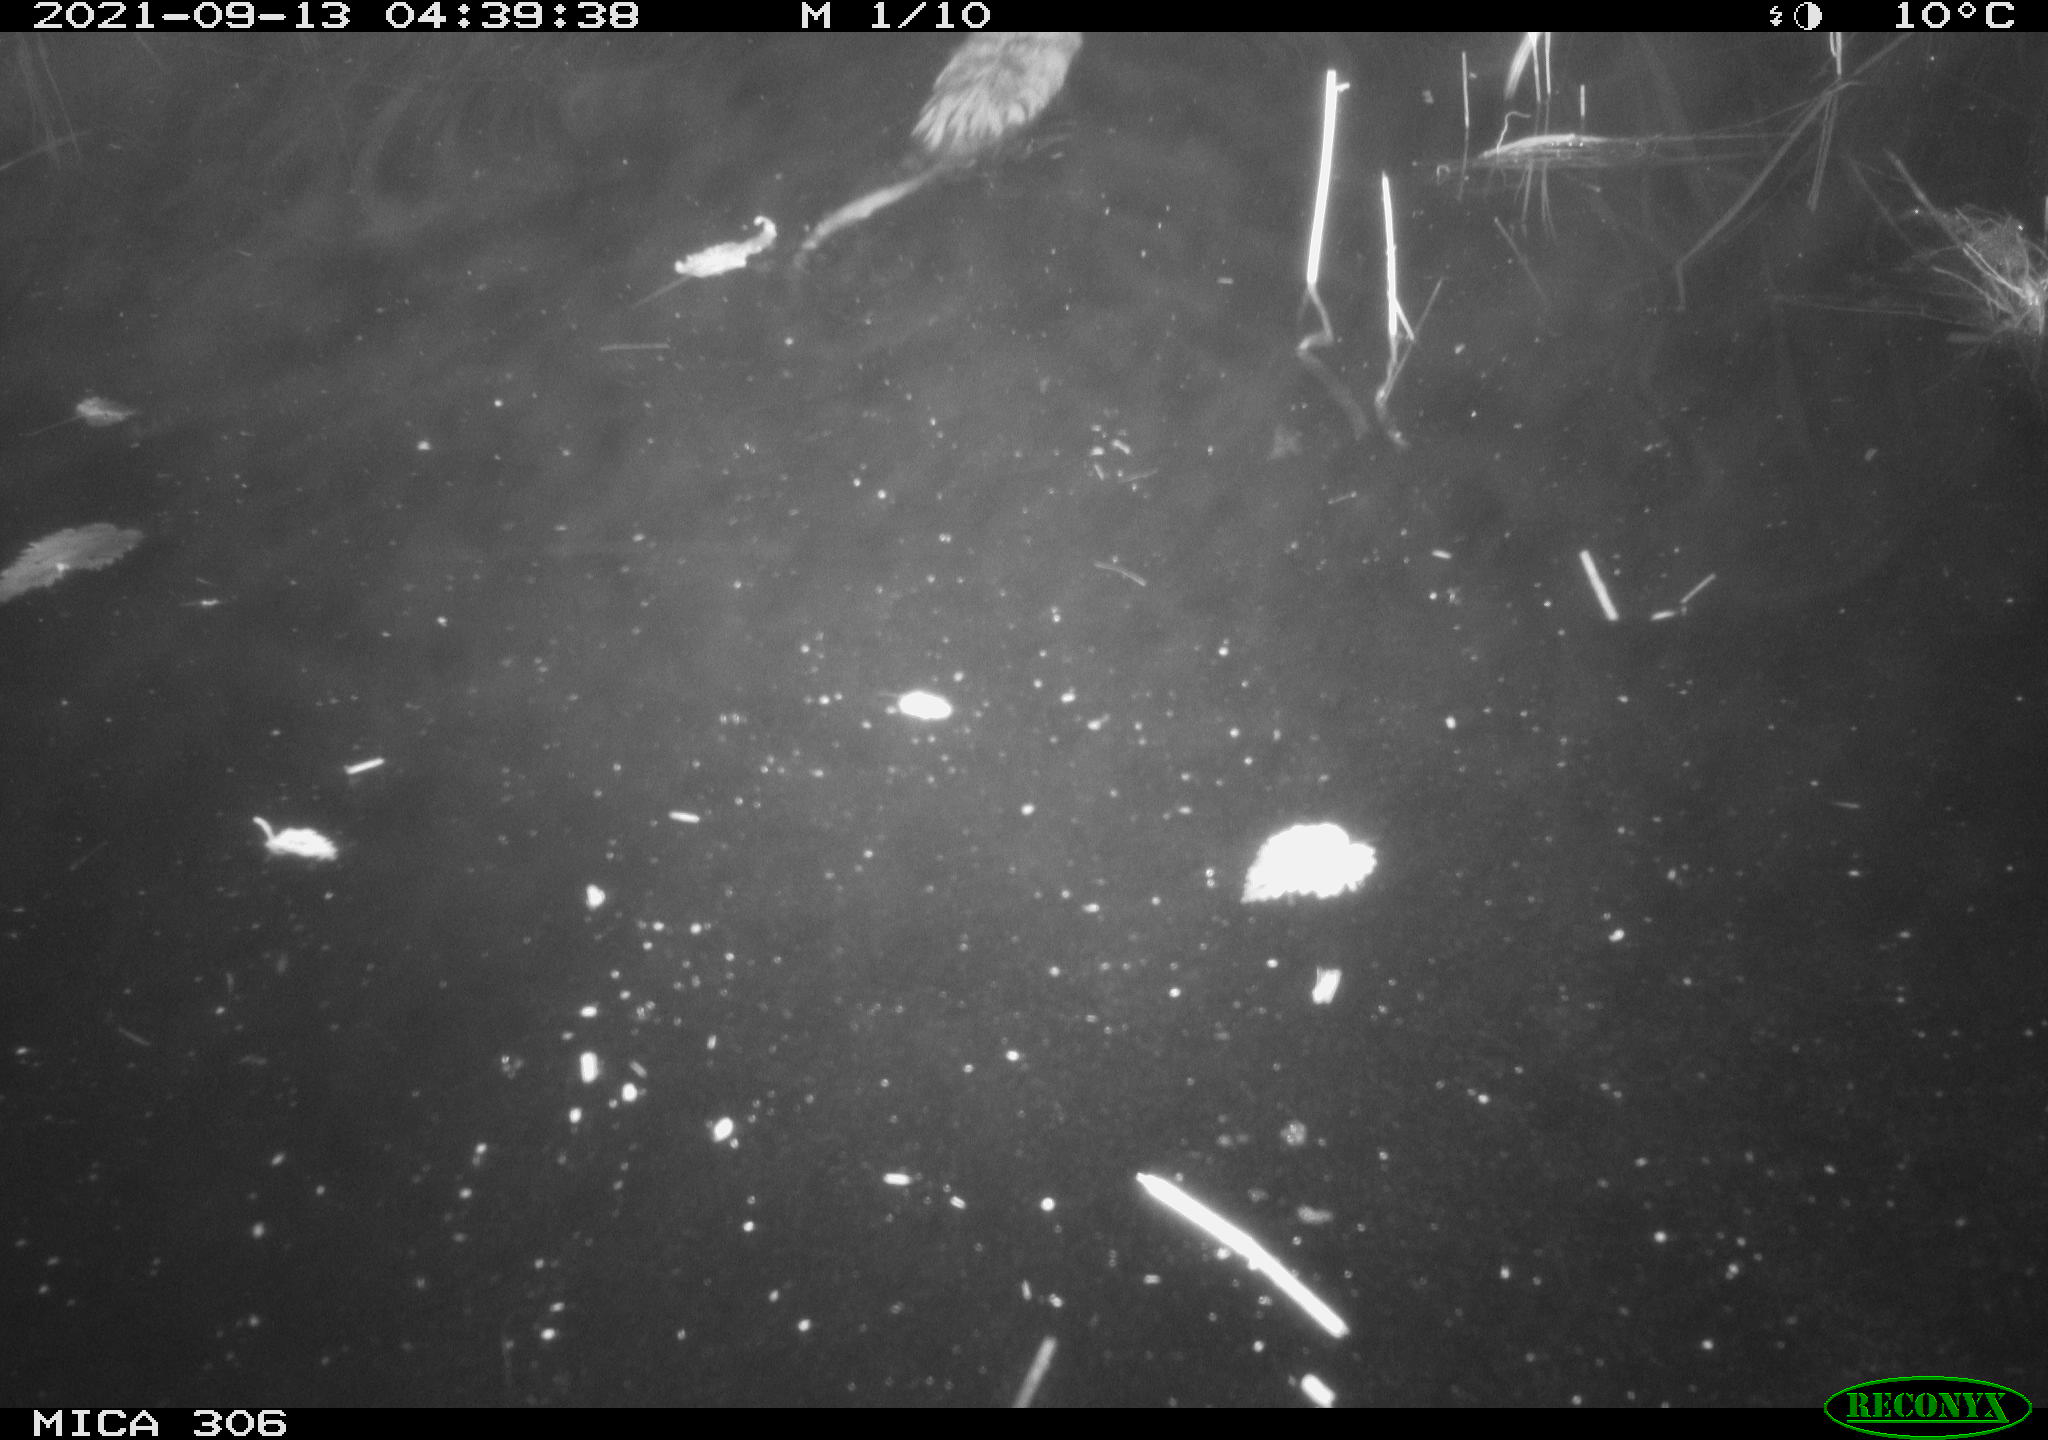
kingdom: Animalia
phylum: Chordata
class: Mammalia
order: Rodentia
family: Cricetidae
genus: Ondatra
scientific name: Ondatra zibethicus
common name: Muskrat
